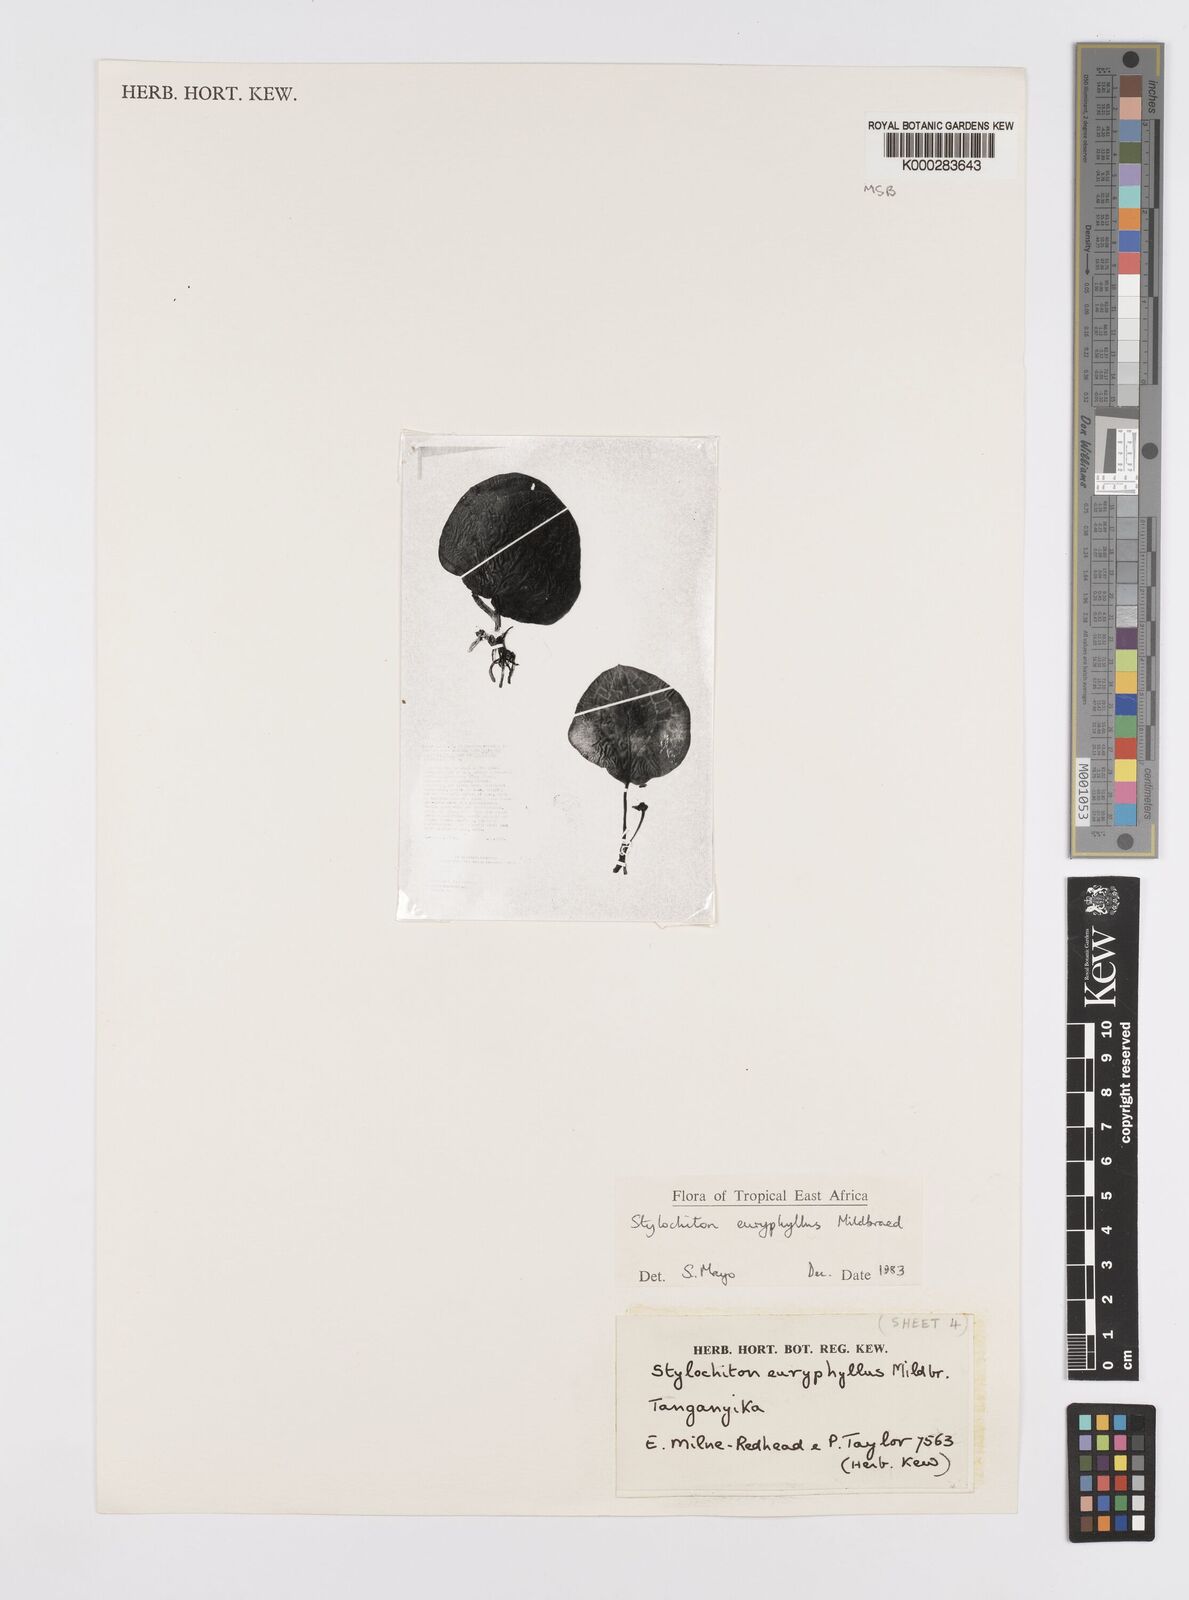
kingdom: Plantae
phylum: Tracheophyta
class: Liliopsida
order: Alismatales
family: Araceae
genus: Stylochaeton
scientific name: Stylochaeton euryphyllum
